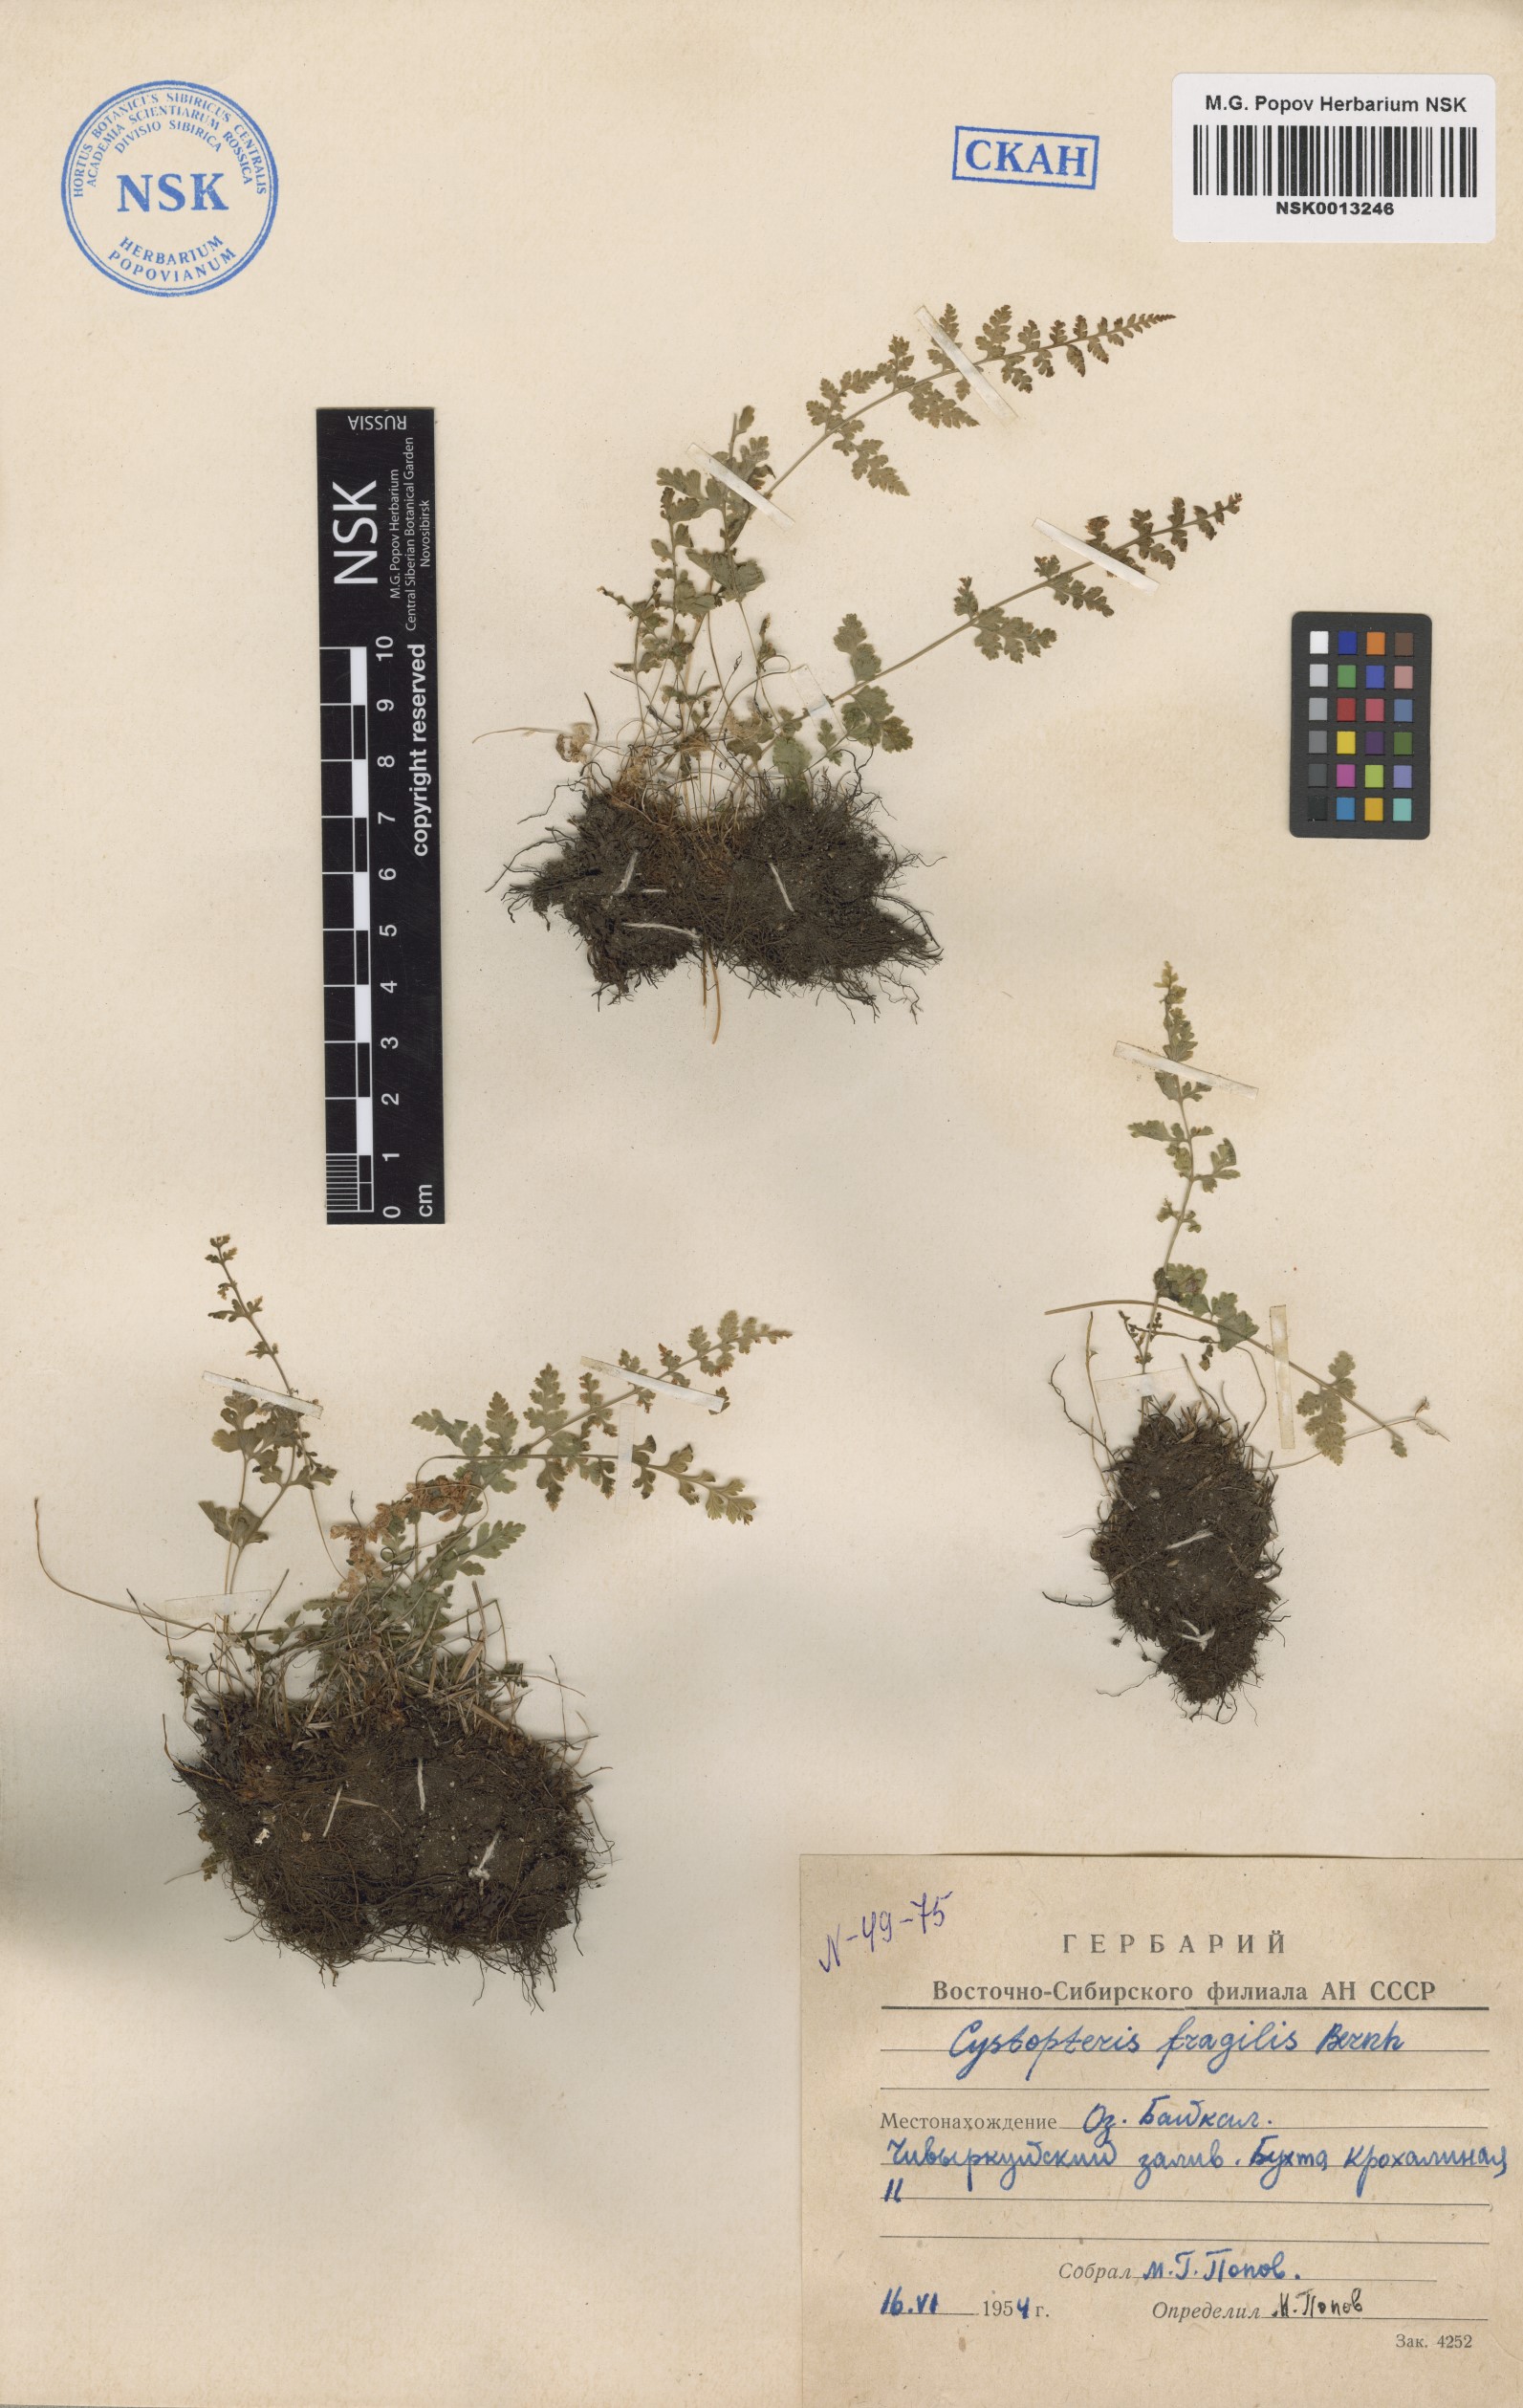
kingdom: Plantae
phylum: Tracheophyta
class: Polypodiopsida
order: Polypodiales
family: Cystopteridaceae
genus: Cystopteris
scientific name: Cystopteris fragilis
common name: Brittle bladder fern
